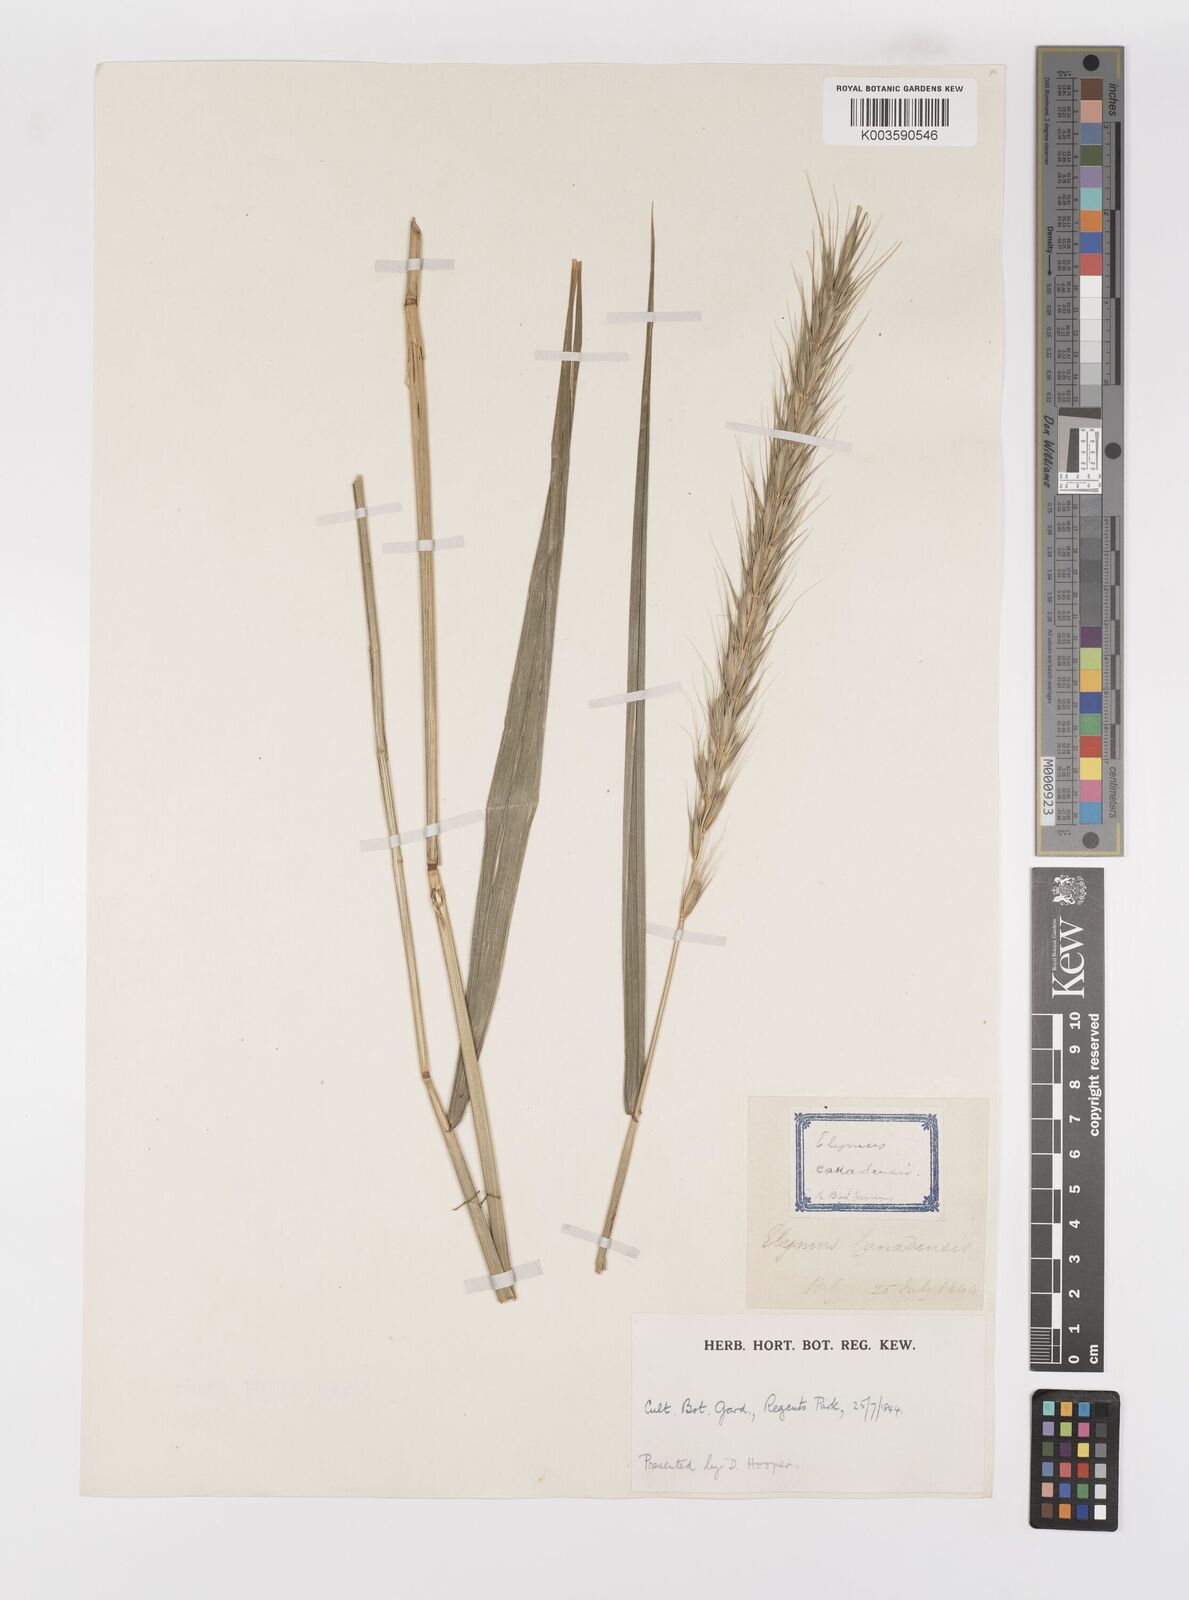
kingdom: Plantae
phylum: Tracheophyta
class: Liliopsida
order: Poales
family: Poaceae
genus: Elymus
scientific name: Elymus canadensis
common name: Canada wild rye
